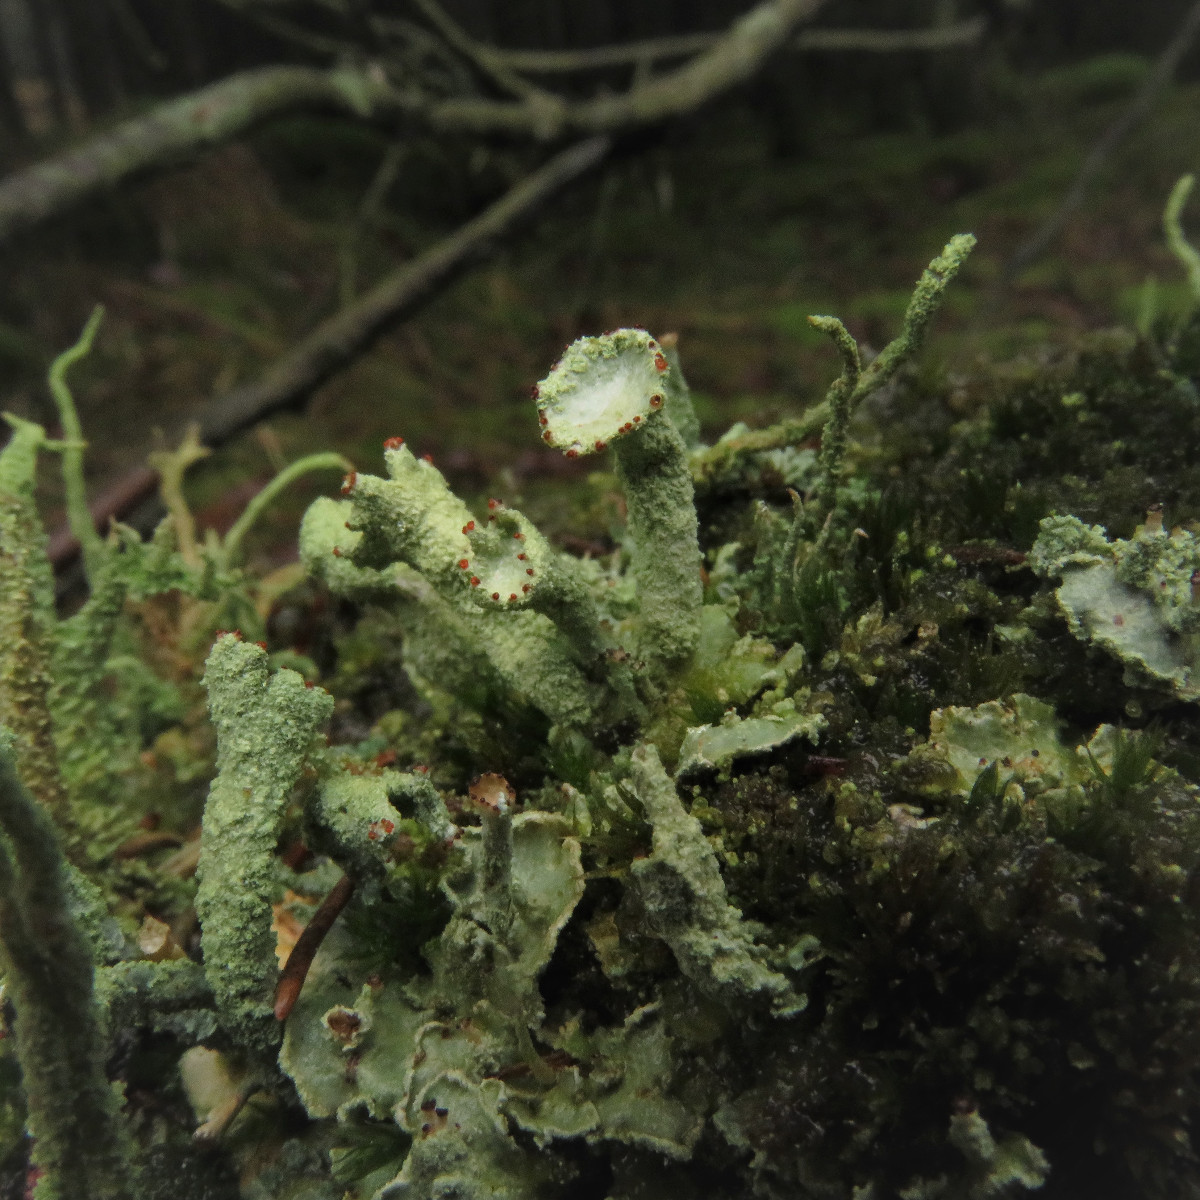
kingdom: Fungi
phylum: Ascomycota
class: Lecanoromycetes
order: Lecanorales
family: Cladoniaceae
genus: Cladonia
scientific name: Cladonia digitata
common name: finger-bægerlav
